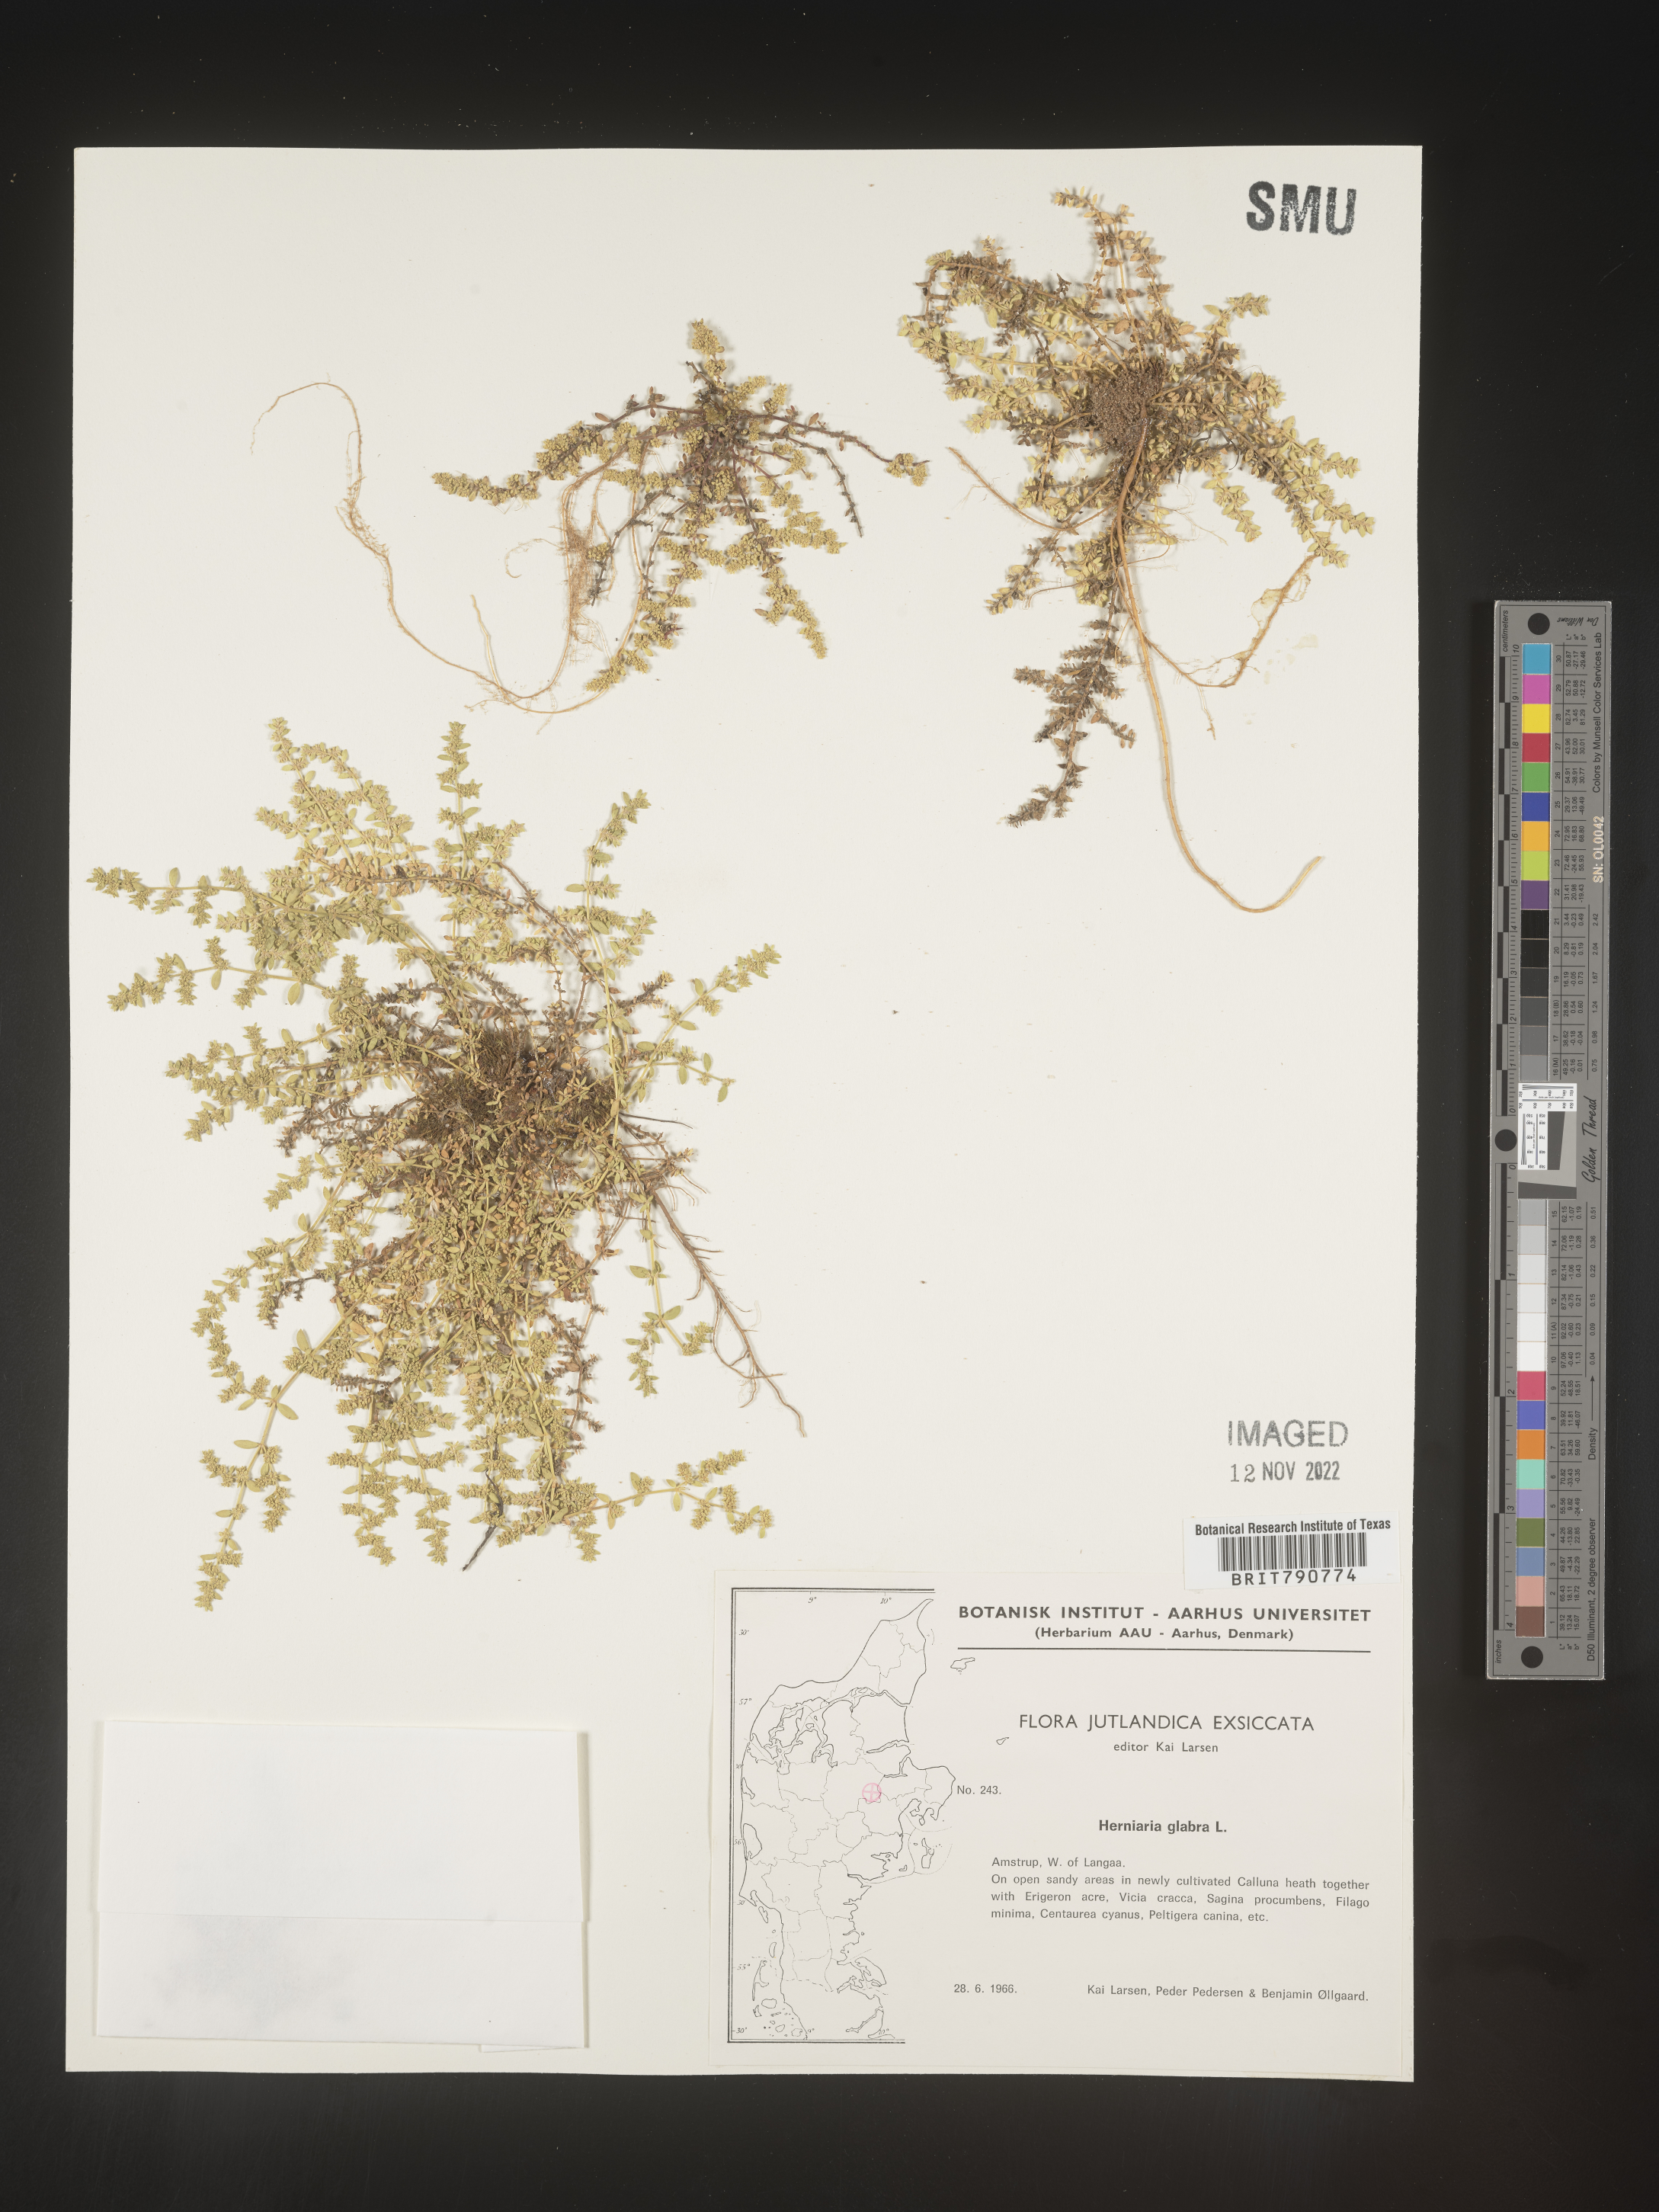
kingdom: Plantae
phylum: Tracheophyta
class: Magnoliopsida
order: Caryophyllales
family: Caryophyllaceae
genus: Herniaria
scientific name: Herniaria
